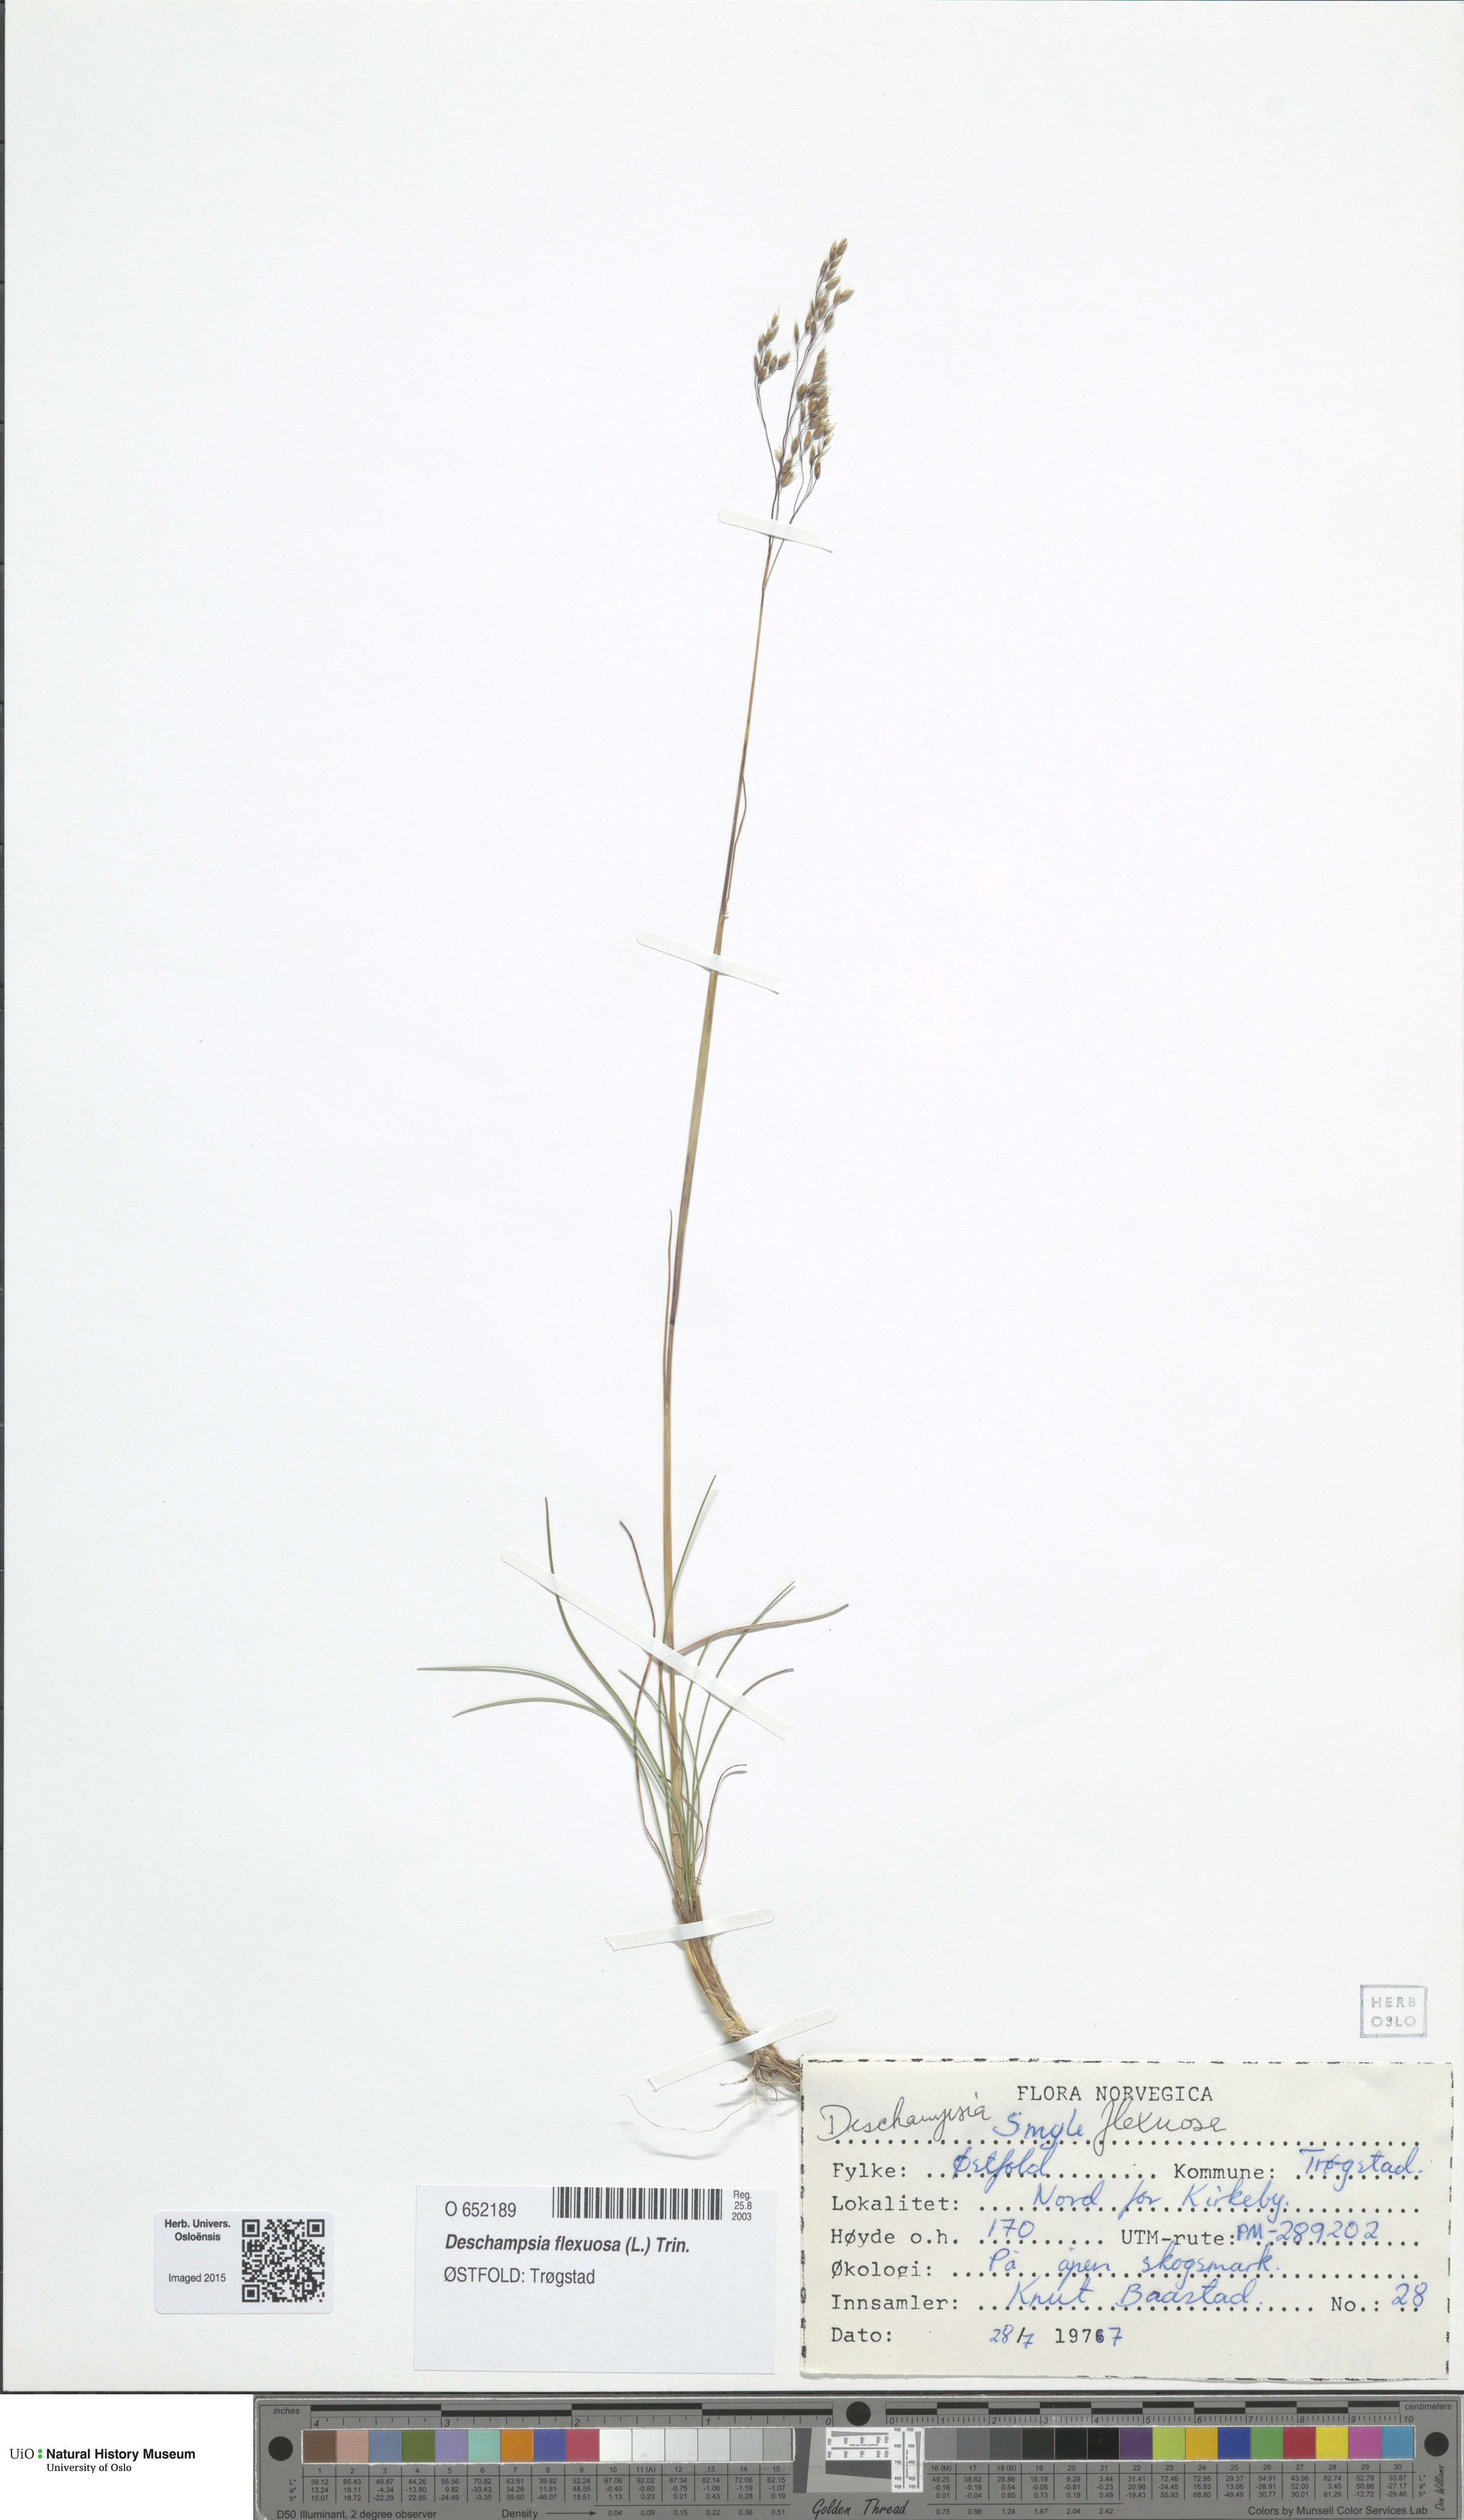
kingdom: Plantae
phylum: Tracheophyta
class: Liliopsida
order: Poales
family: Poaceae
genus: Avenella
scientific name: Avenella flexuosa
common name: Wavy hairgrass
